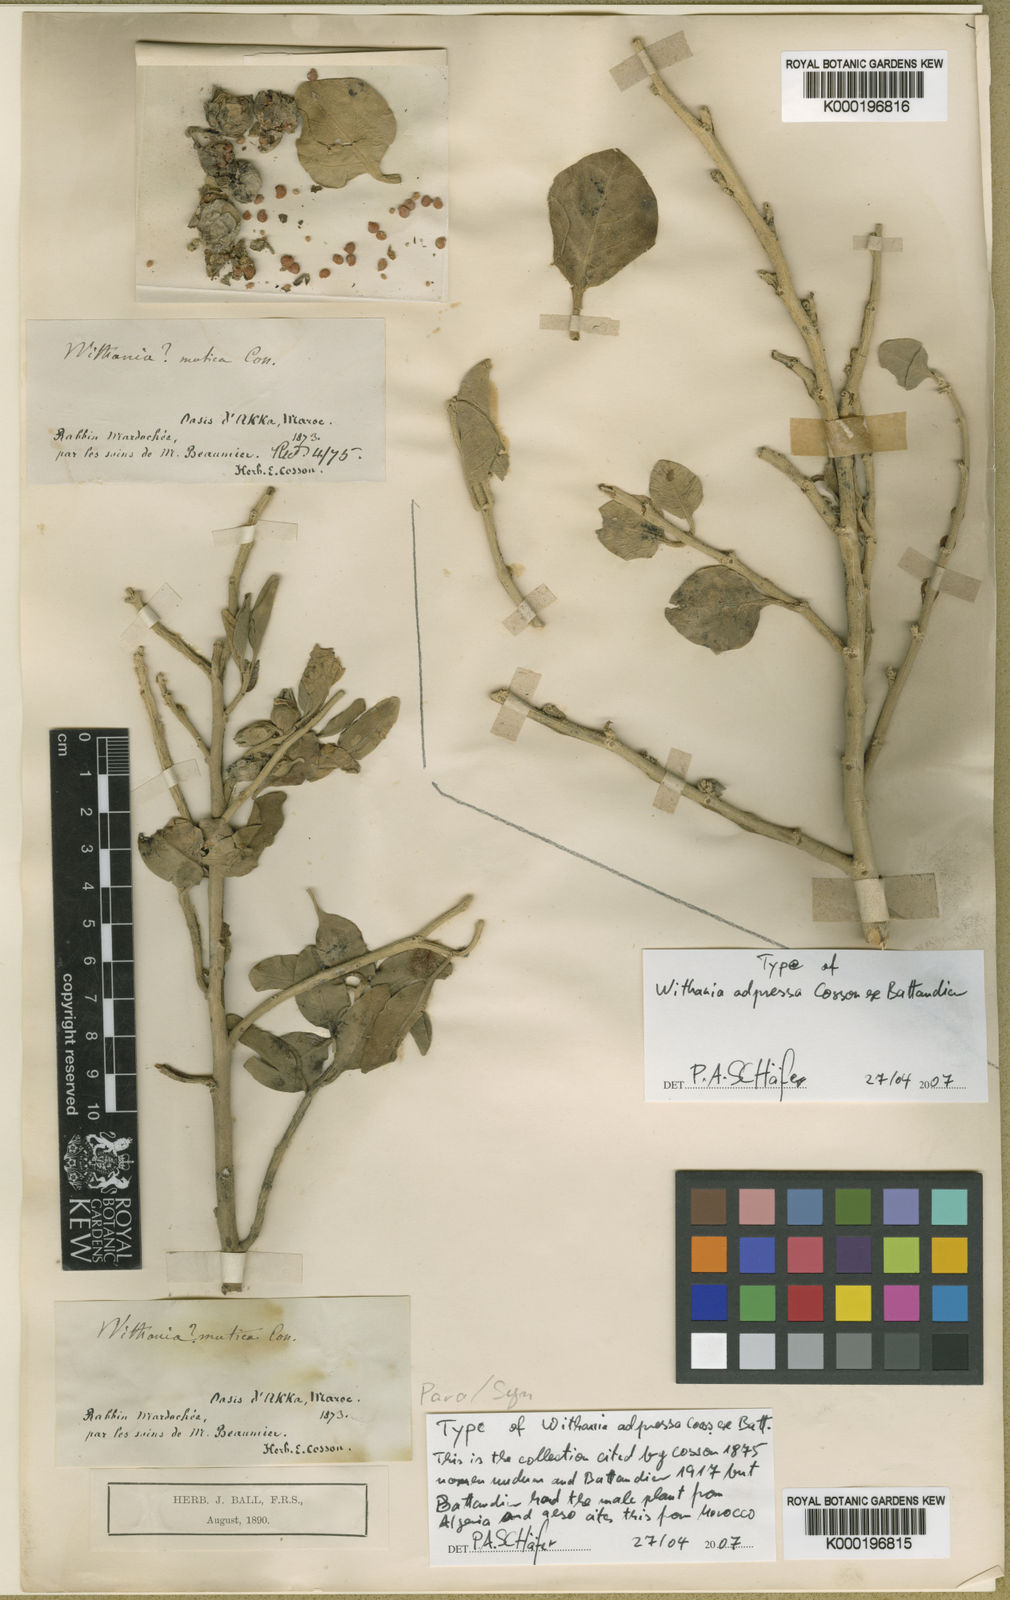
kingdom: Plantae
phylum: Tracheophyta
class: Magnoliopsida
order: Solanales
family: Solanaceae
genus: Withania
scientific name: Withania adpressa
